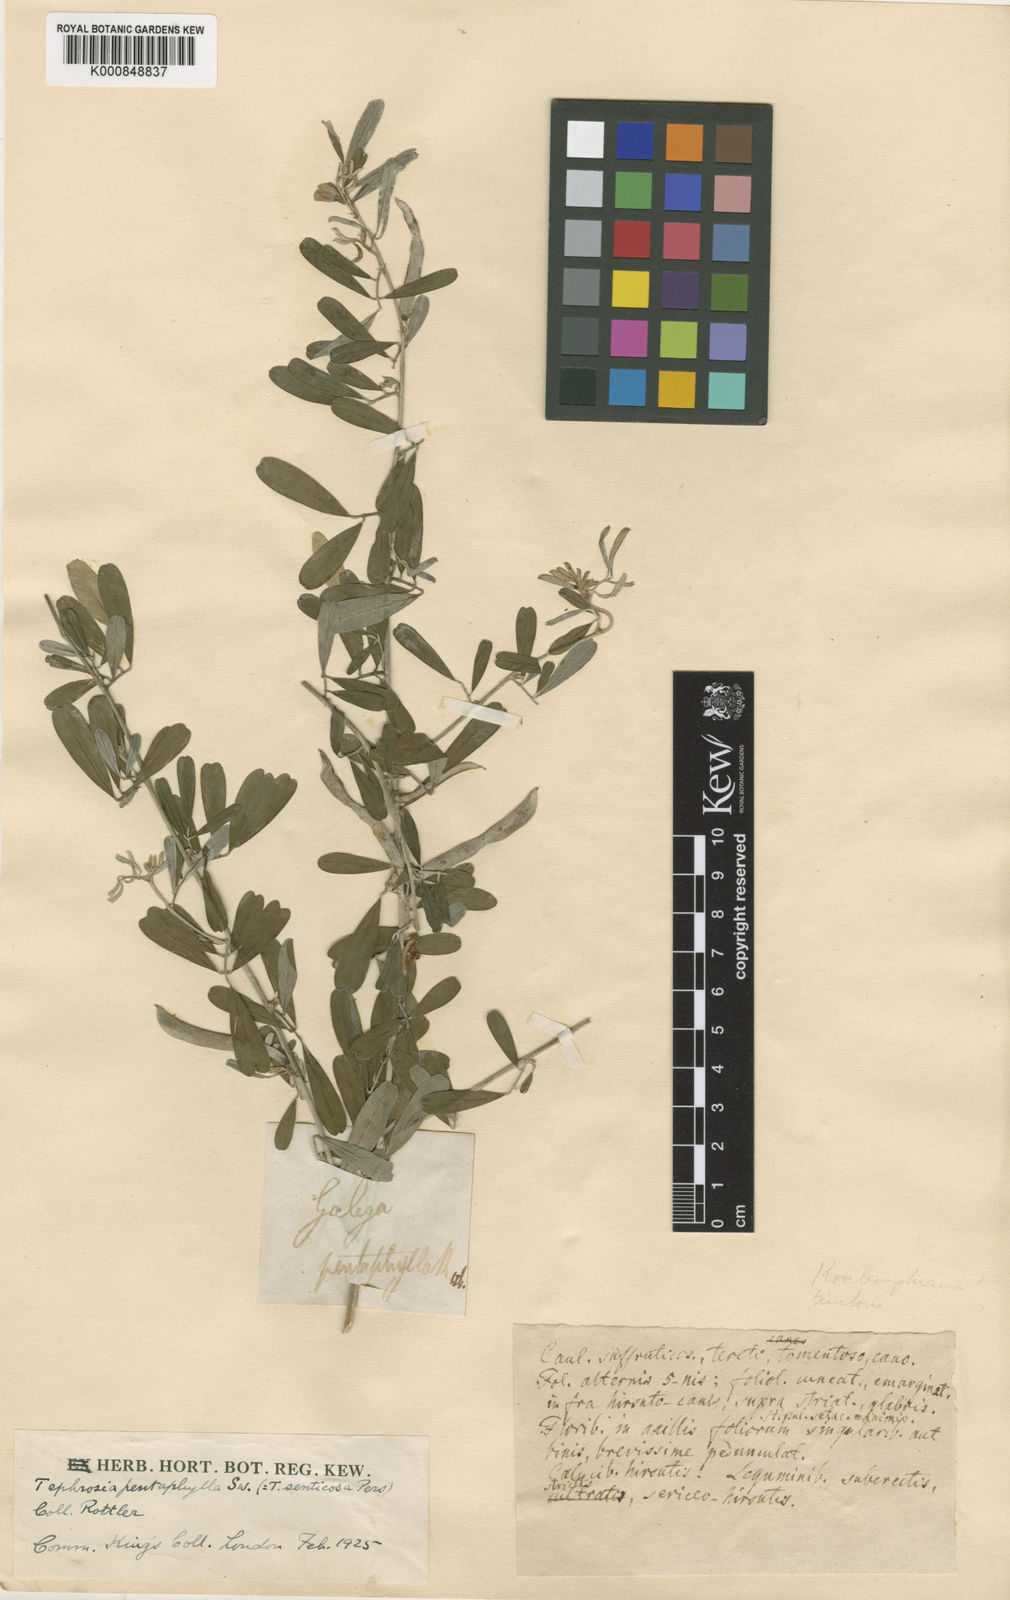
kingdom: Plantae
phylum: Tracheophyta
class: Magnoliopsida
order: Fabales
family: Fabaceae
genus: Tephrosia
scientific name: Tephrosia
